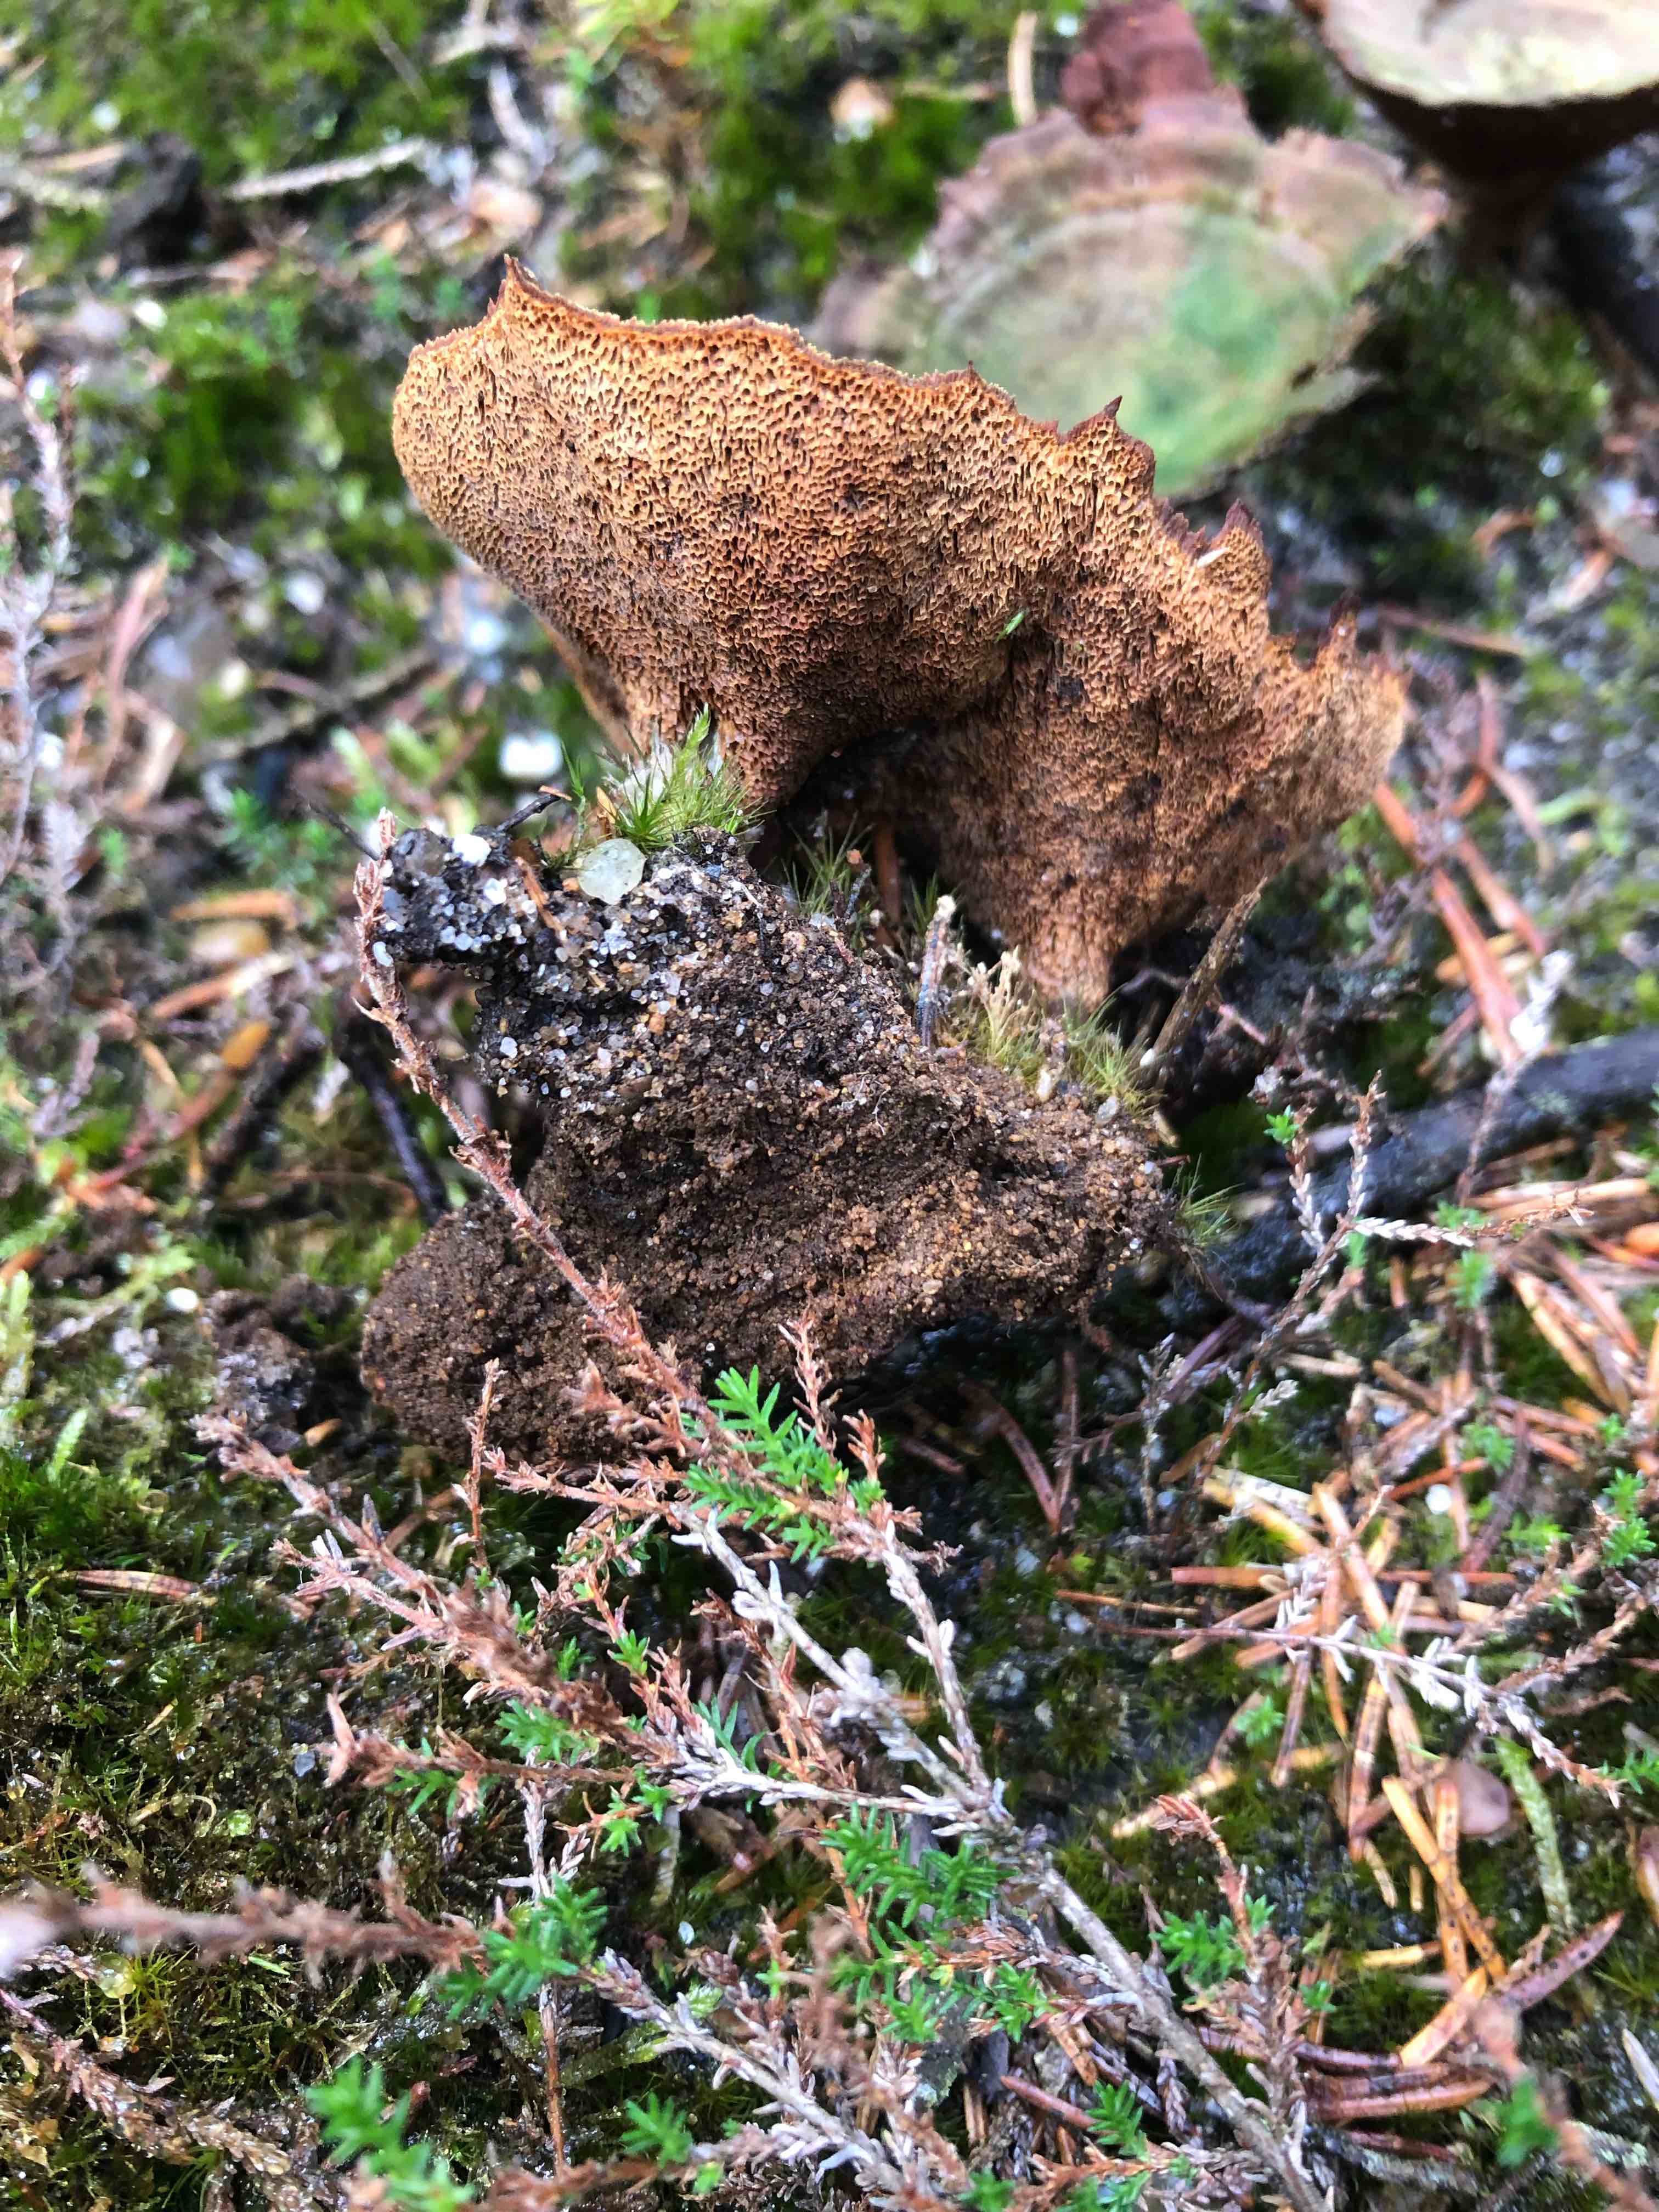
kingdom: Fungi
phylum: Basidiomycota
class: Agaricomycetes
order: Hymenochaetales
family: Hymenochaetaceae
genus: Coltricia
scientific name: Coltricia perennis
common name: almindelig sandporesvamp
